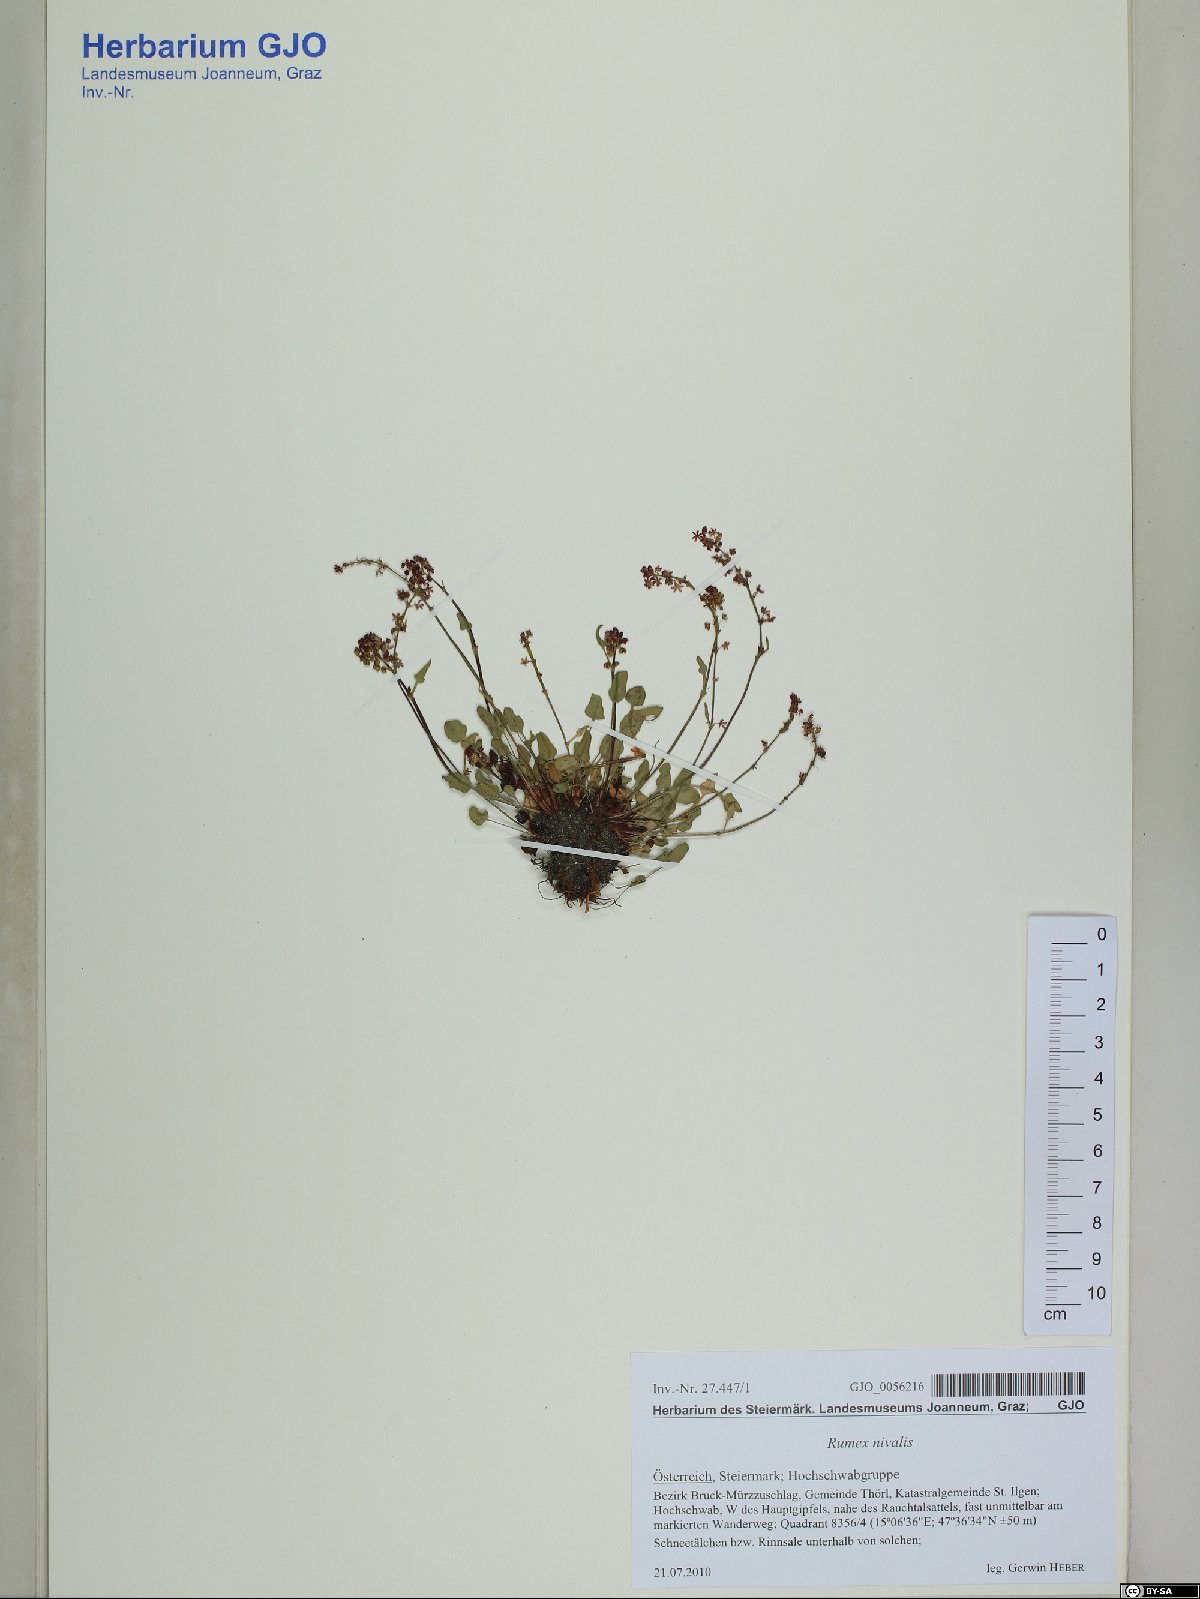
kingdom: Plantae
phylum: Tracheophyta
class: Magnoliopsida
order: Caryophyllales
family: Polygonaceae
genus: Rumex
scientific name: Rumex nivalis
